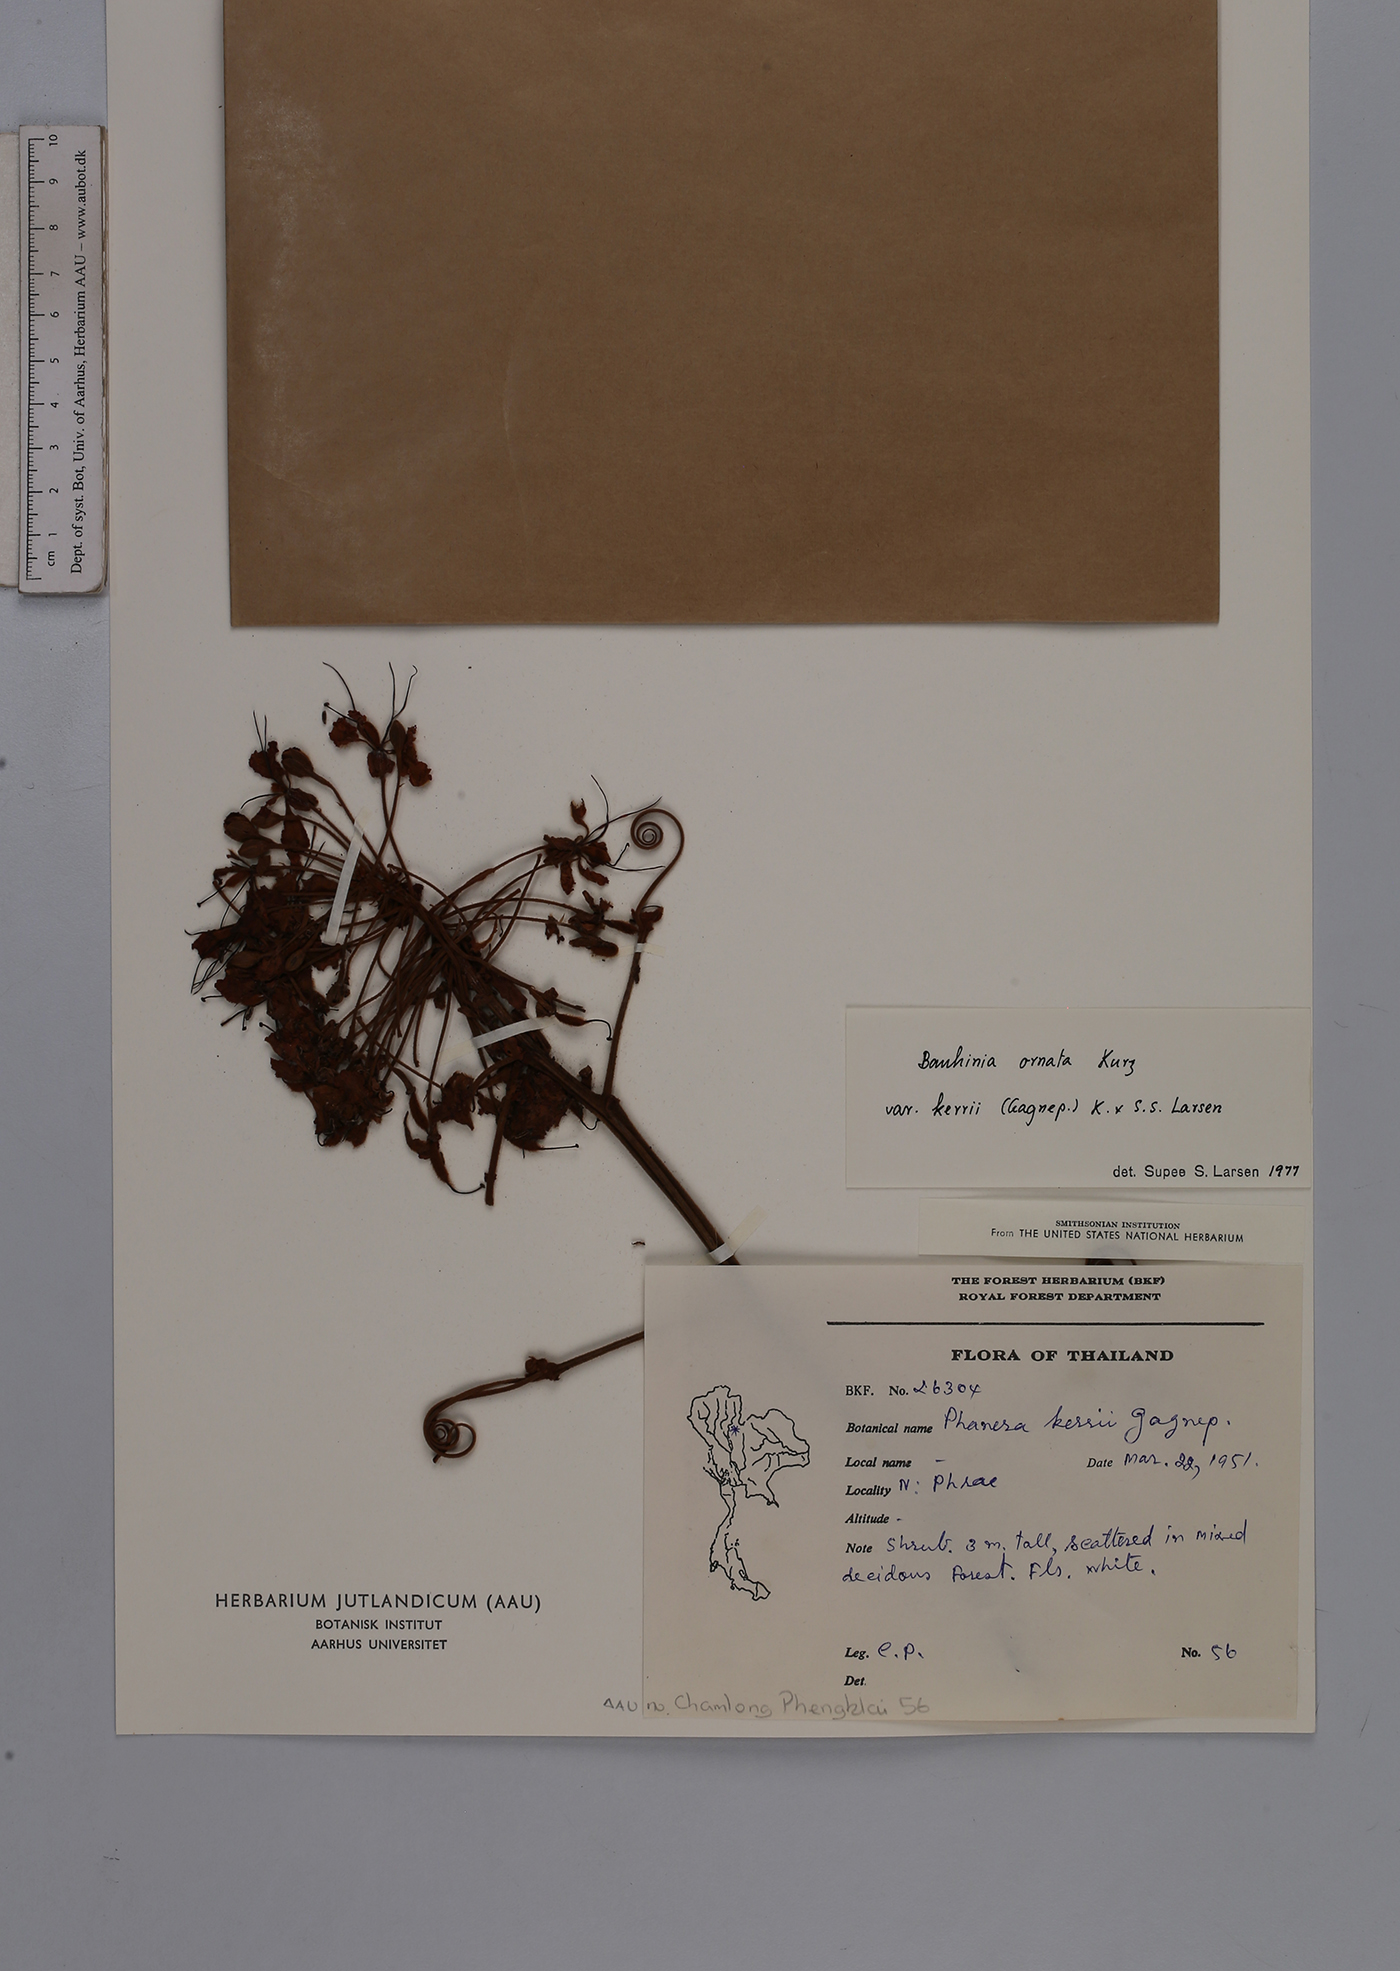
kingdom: Plantae
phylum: Tracheophyta
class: Magnoliopsida
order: Fabales
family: Fabaceae
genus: Phanera
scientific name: Phanera ornata
